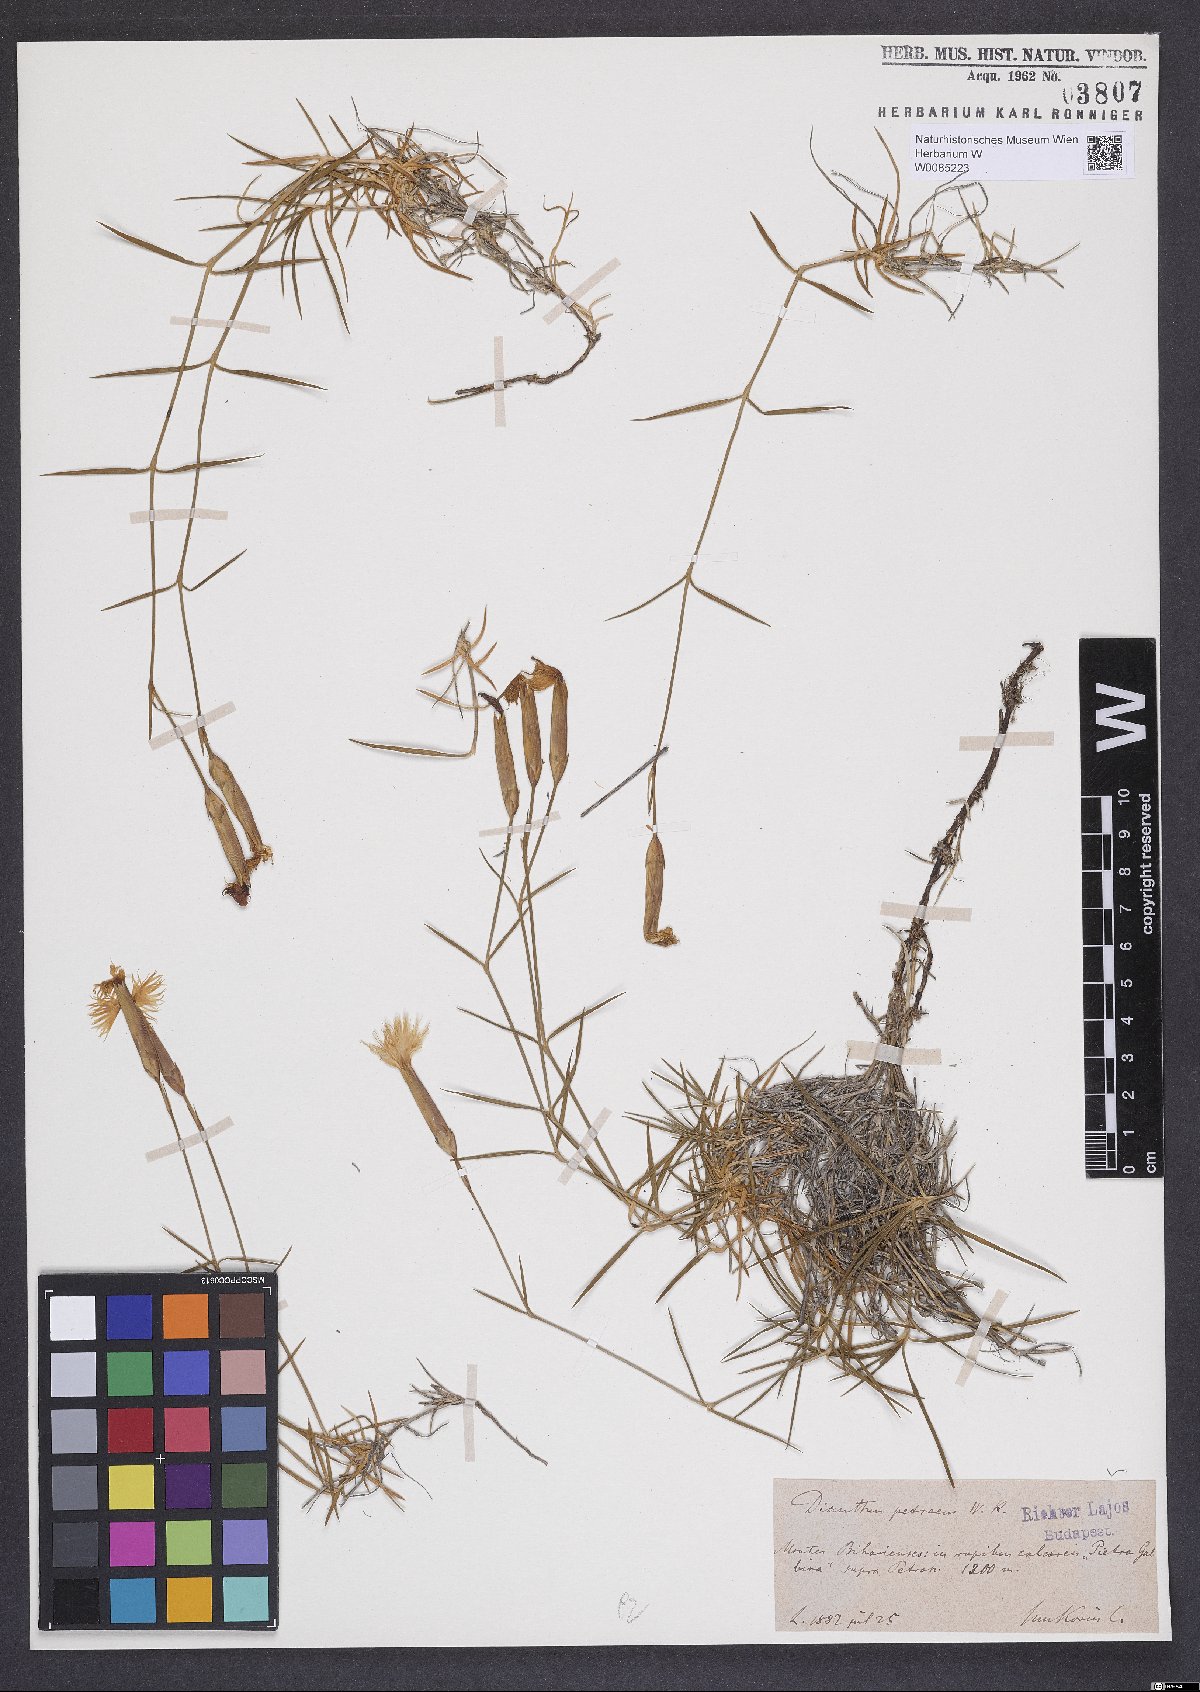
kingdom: Plantae
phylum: Tracheophyta
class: Magnoliopsida
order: Caryophyllales
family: Caryophyllaceae
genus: Dianthus
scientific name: Dianthus petraeus
